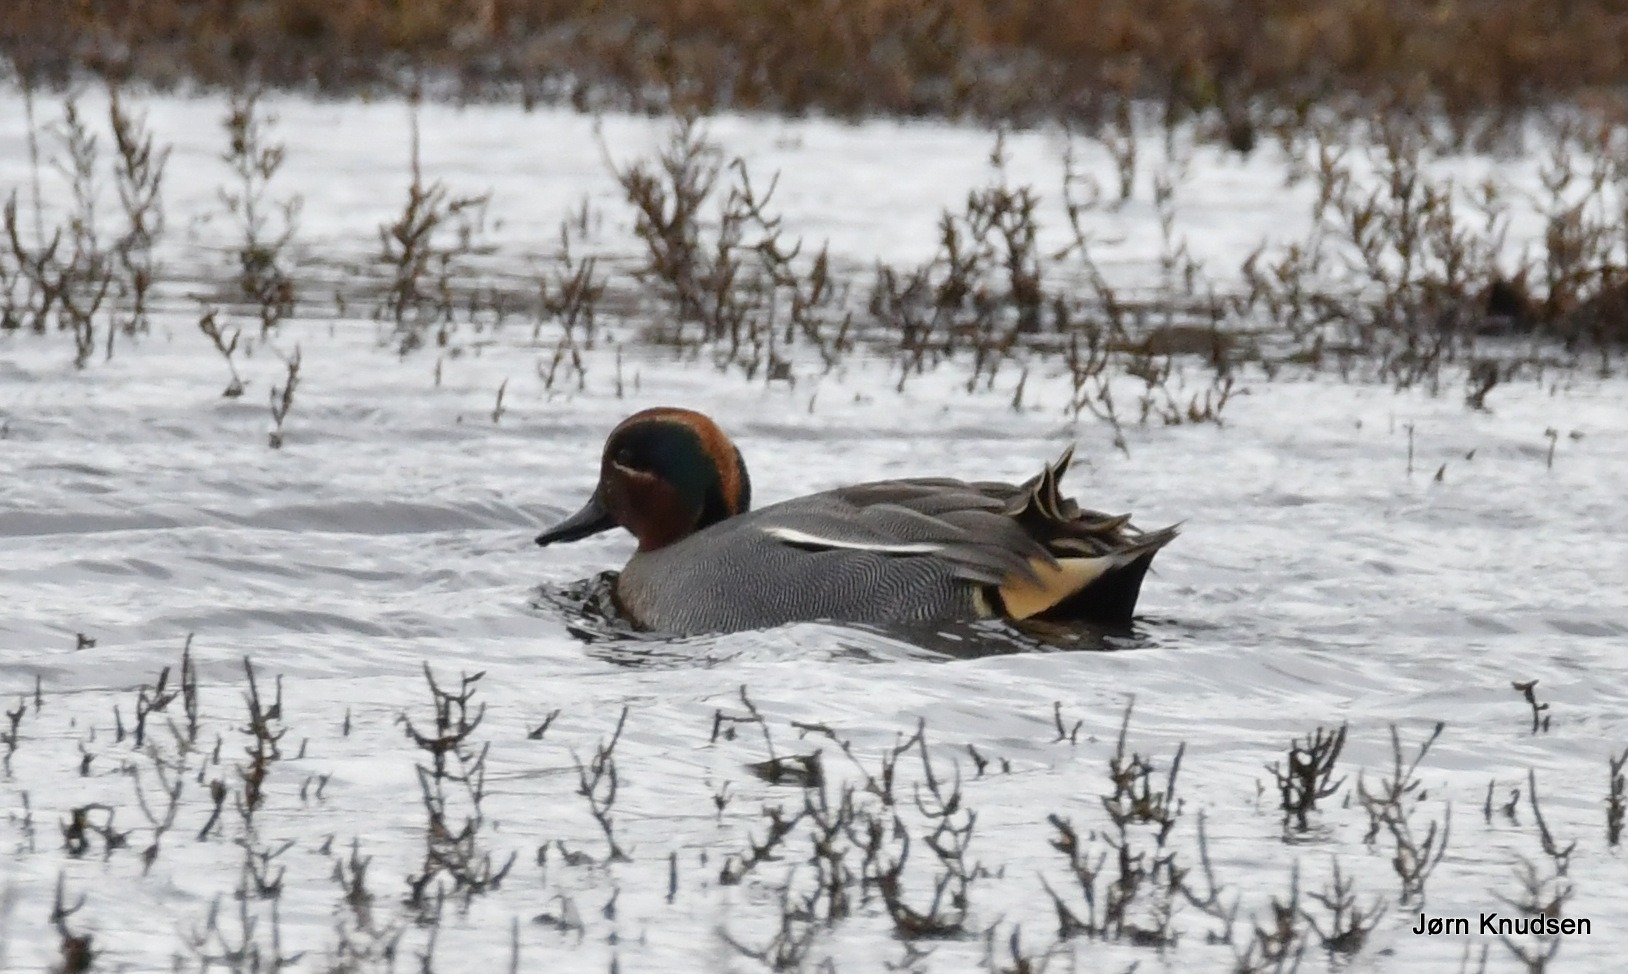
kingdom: Animalia
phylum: Chordata
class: Aves
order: Anseriformes
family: Anatidae
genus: Anas
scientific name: Anas crecca
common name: Krikand
